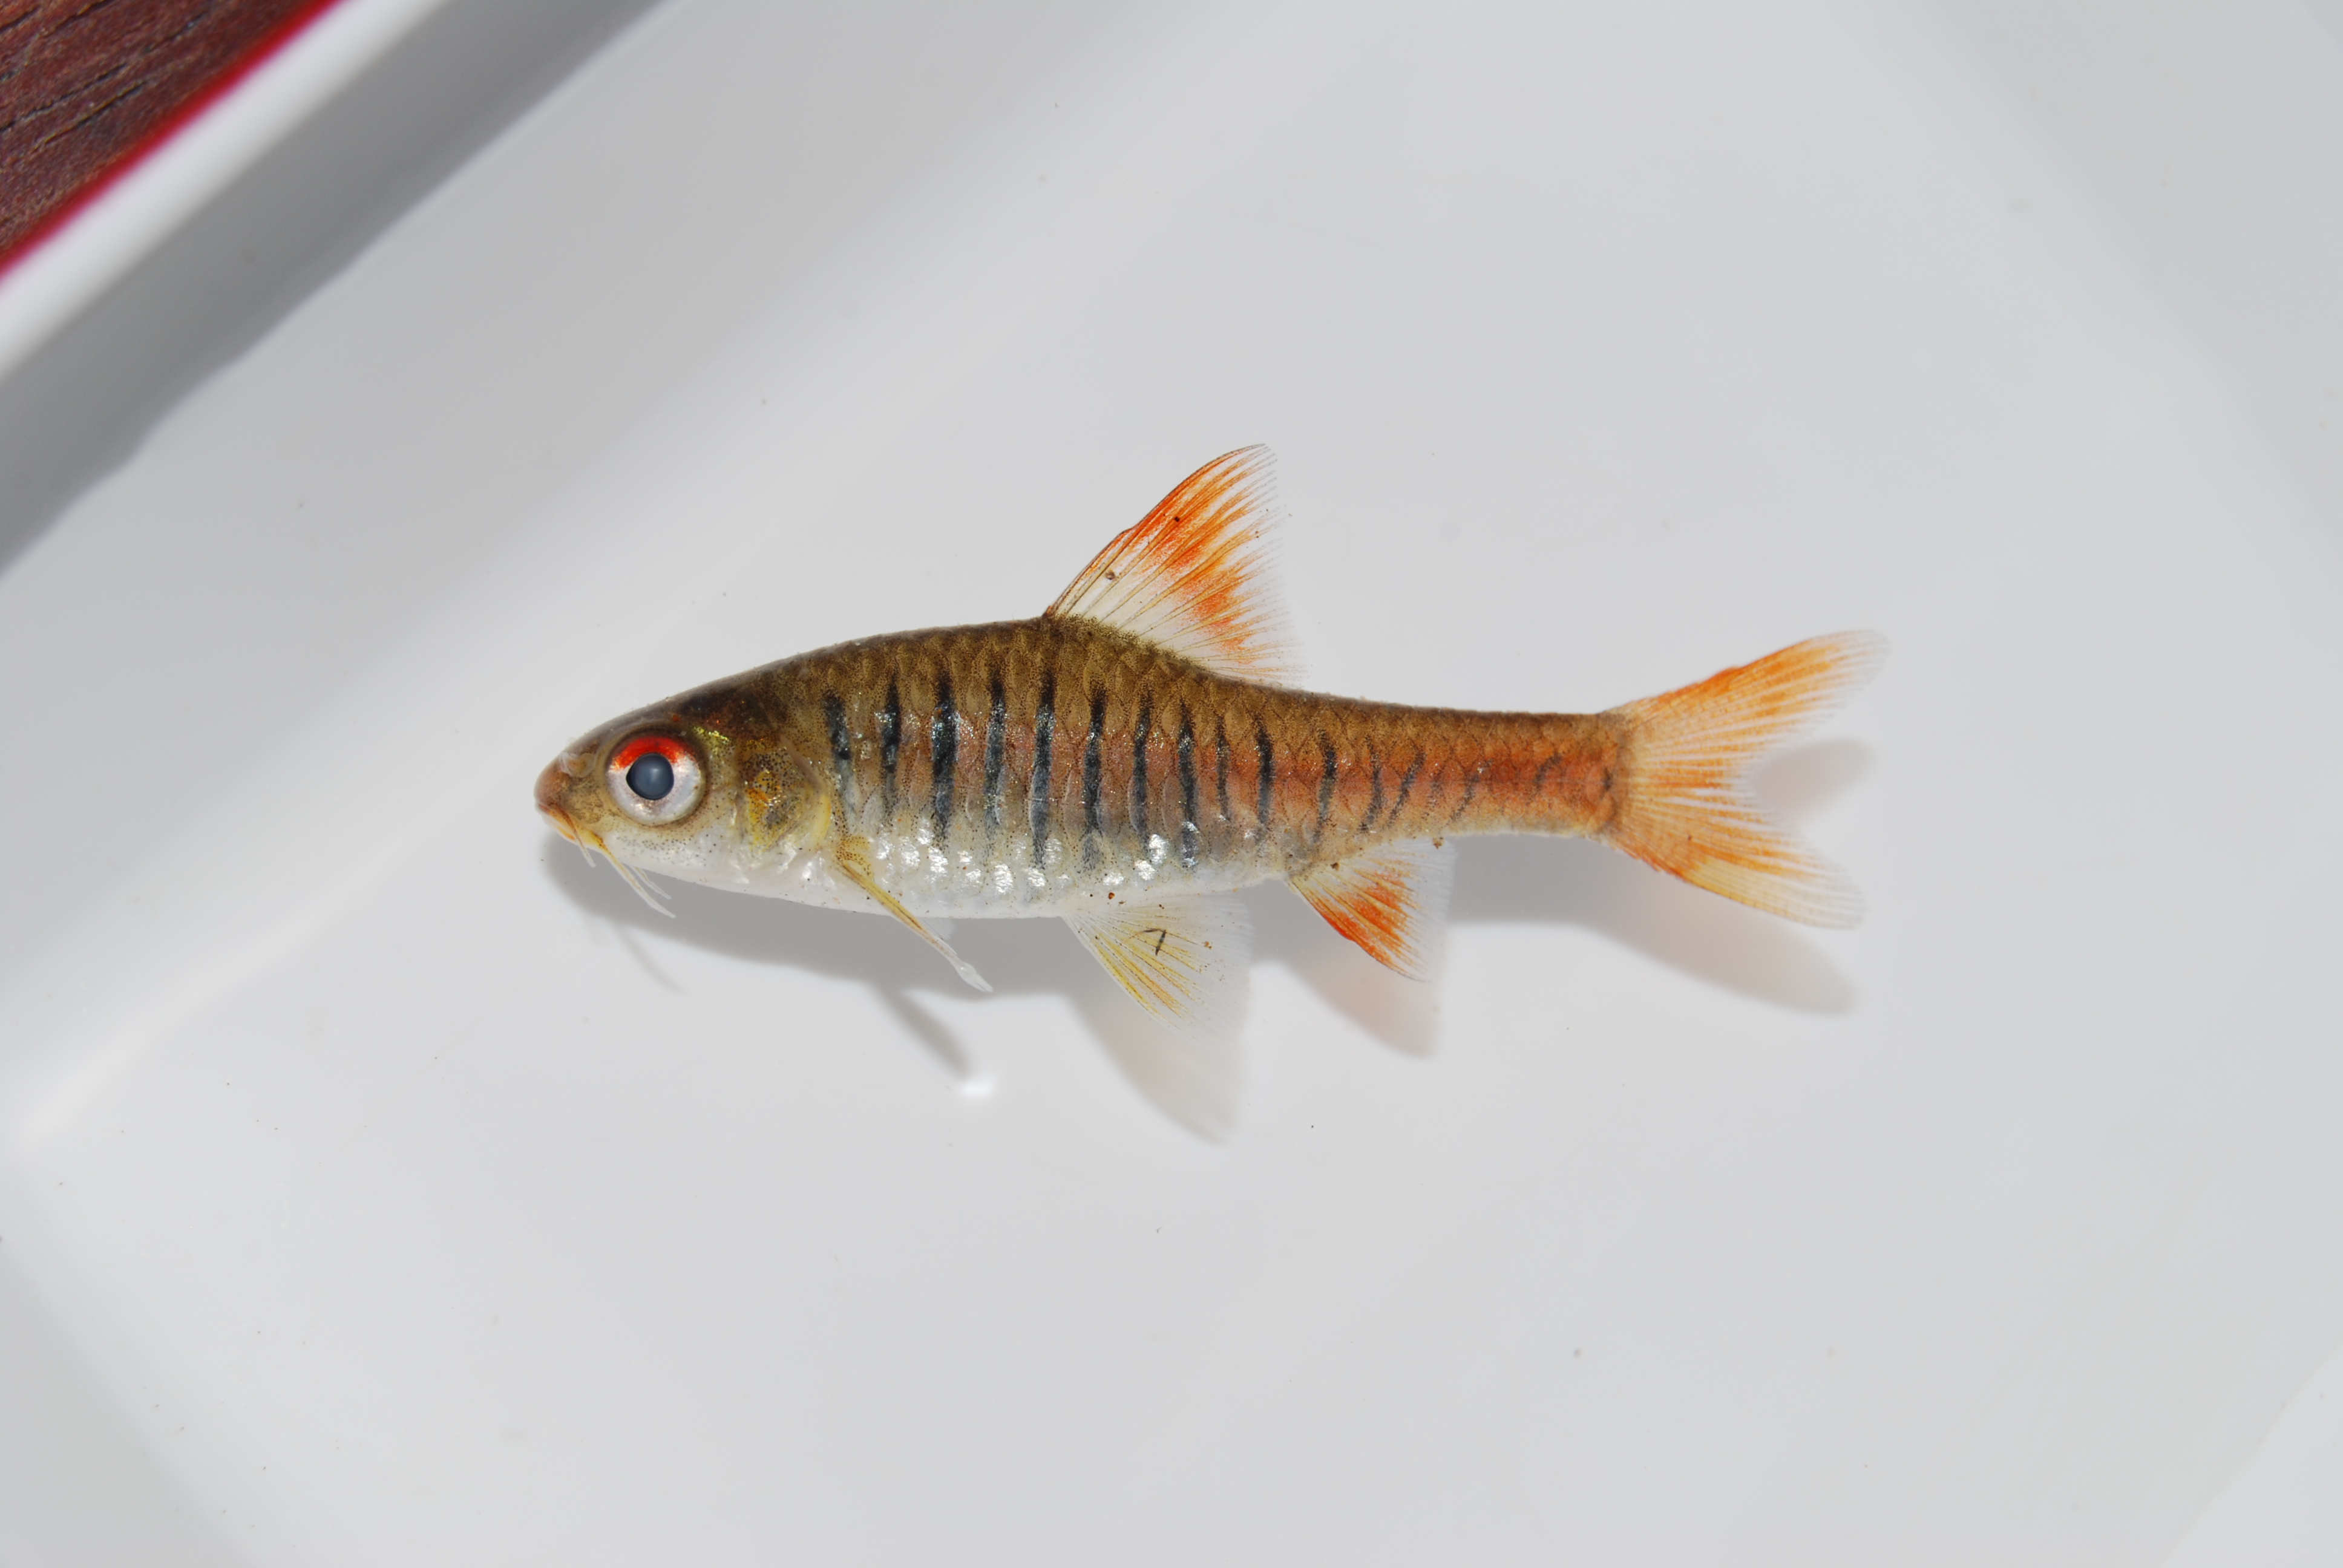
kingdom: Animalia
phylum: Chordata
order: Cypriniformes
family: Cyprinidae
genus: Enteromius
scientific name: Enteromius fasciolatus
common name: Red barb
